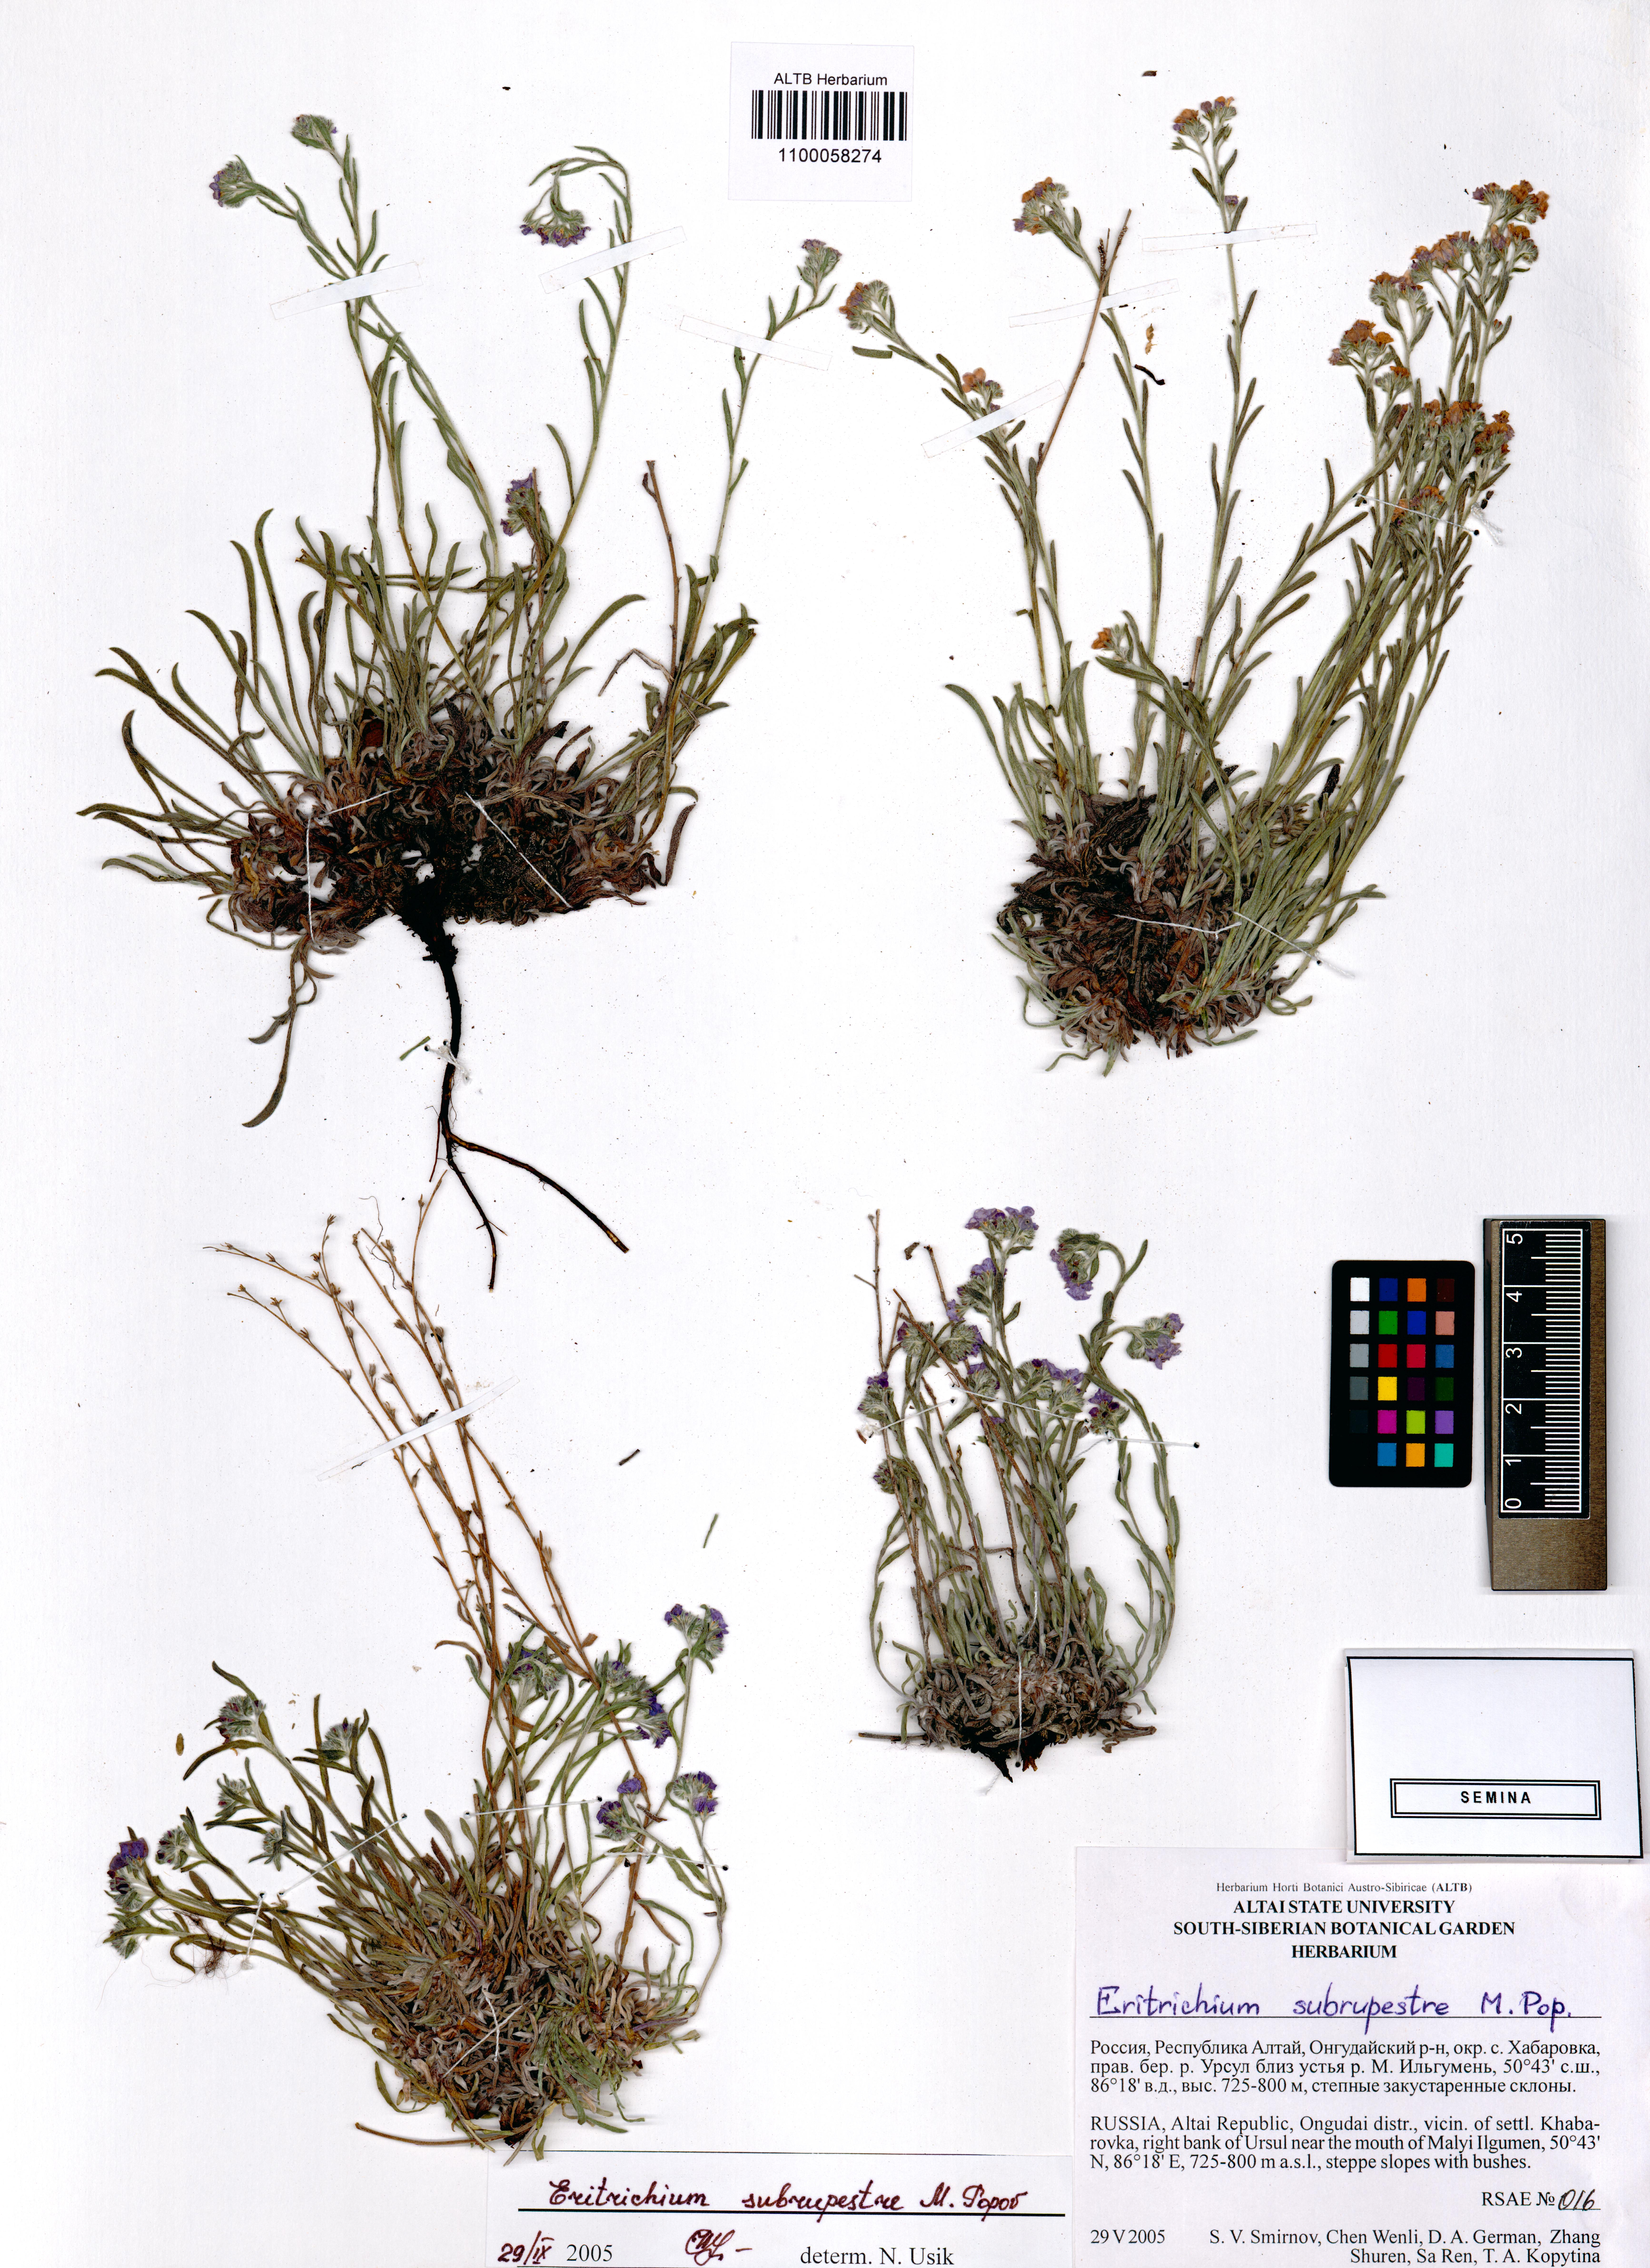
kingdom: Plantae
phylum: Tracheophyta
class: Magnoliopsida
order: Boraginales
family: Boraginaceae
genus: Eritrichium
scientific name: Eritrichium pauciflorum
